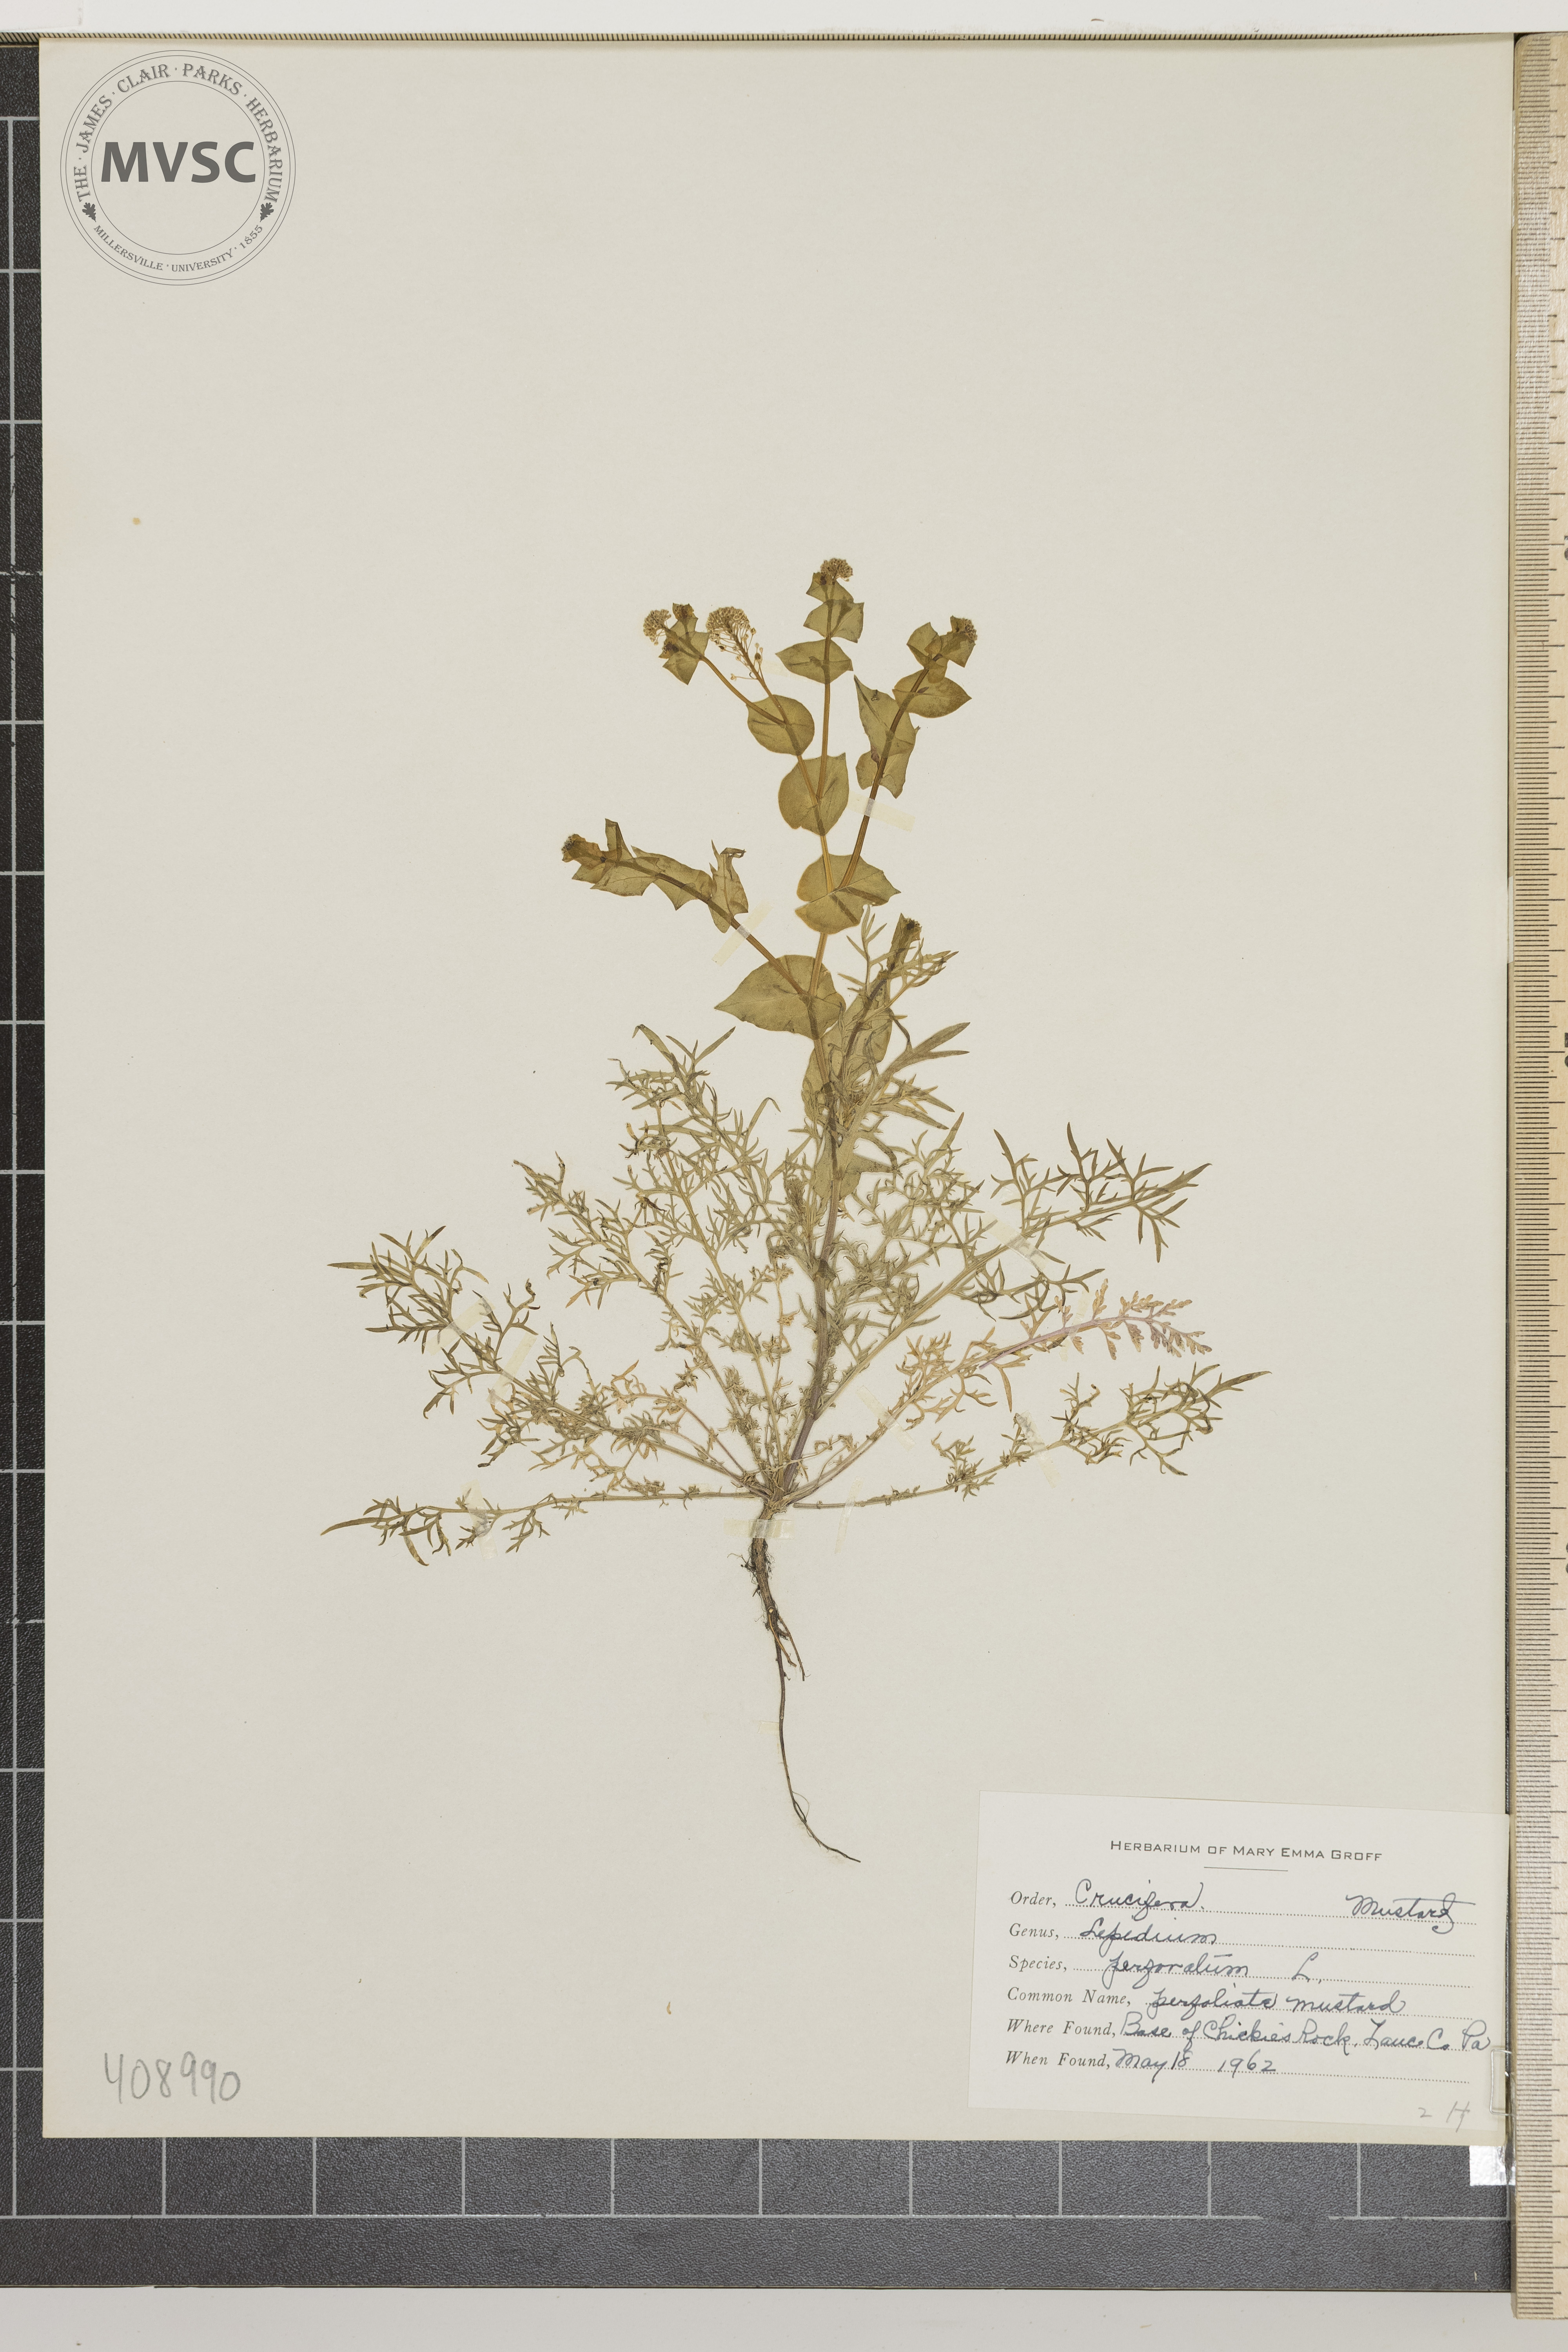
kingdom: Plantae
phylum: Tracheophyta
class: Magnoliopsida
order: Brassicales
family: Brassicaceae
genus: Lepidium
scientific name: Lepidium perfoliatum
